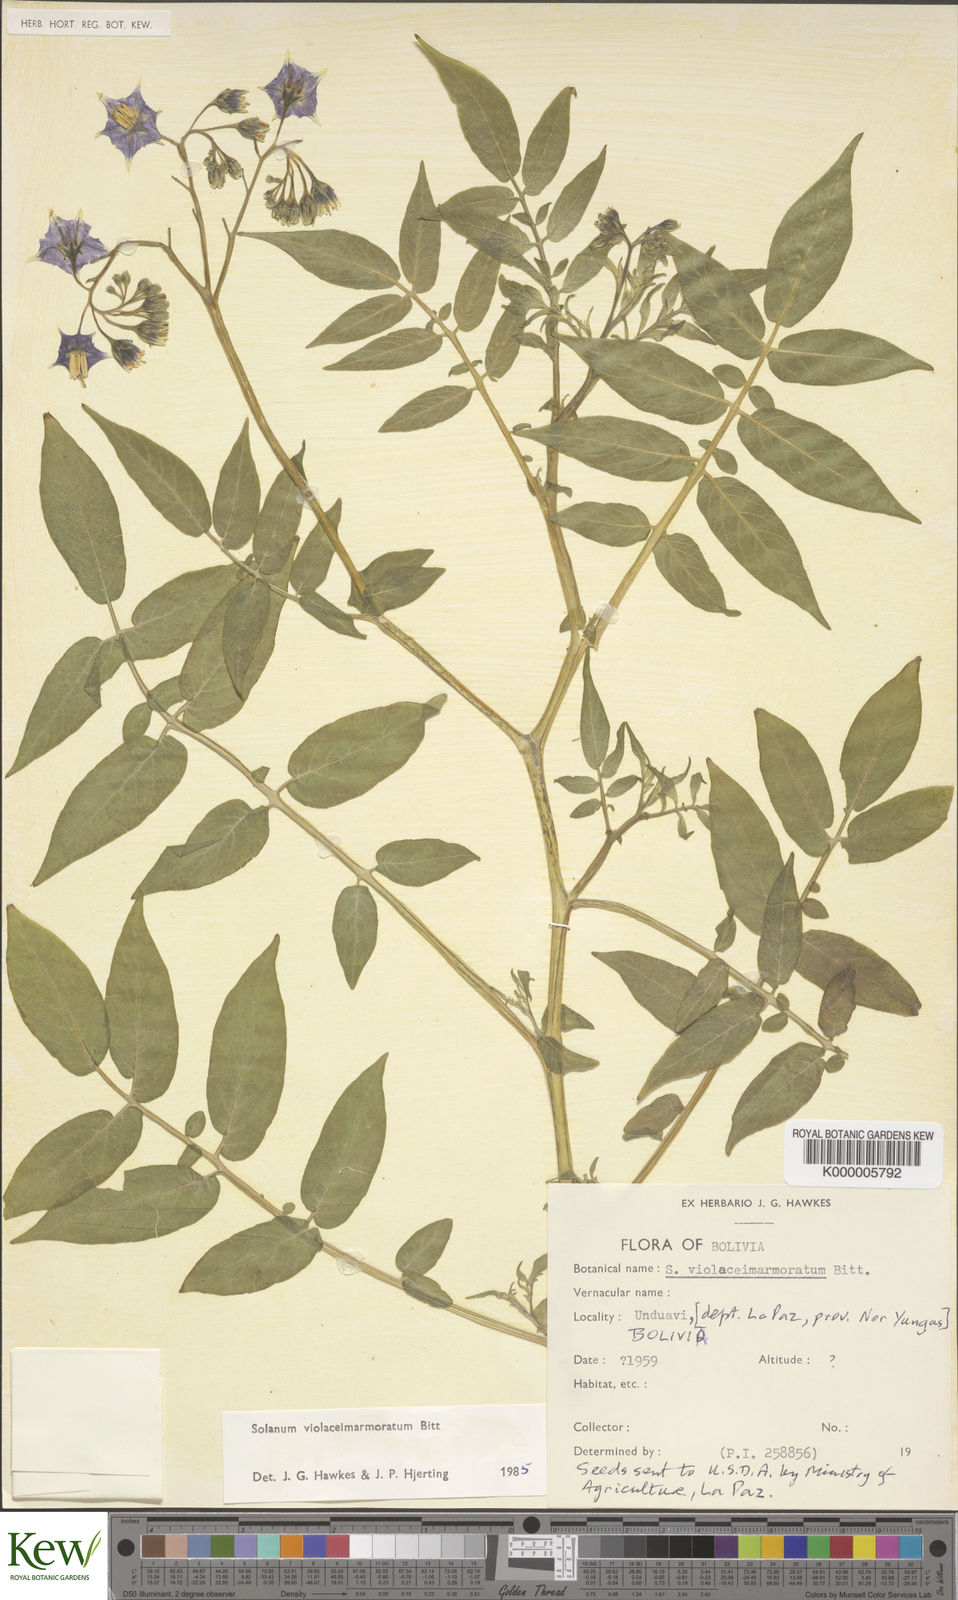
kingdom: Plantae
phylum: Tracheophyta
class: Magnoliopsida
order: Solanales
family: Solanaceae
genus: Solanum
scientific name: Solanum violaceimarmoratum
